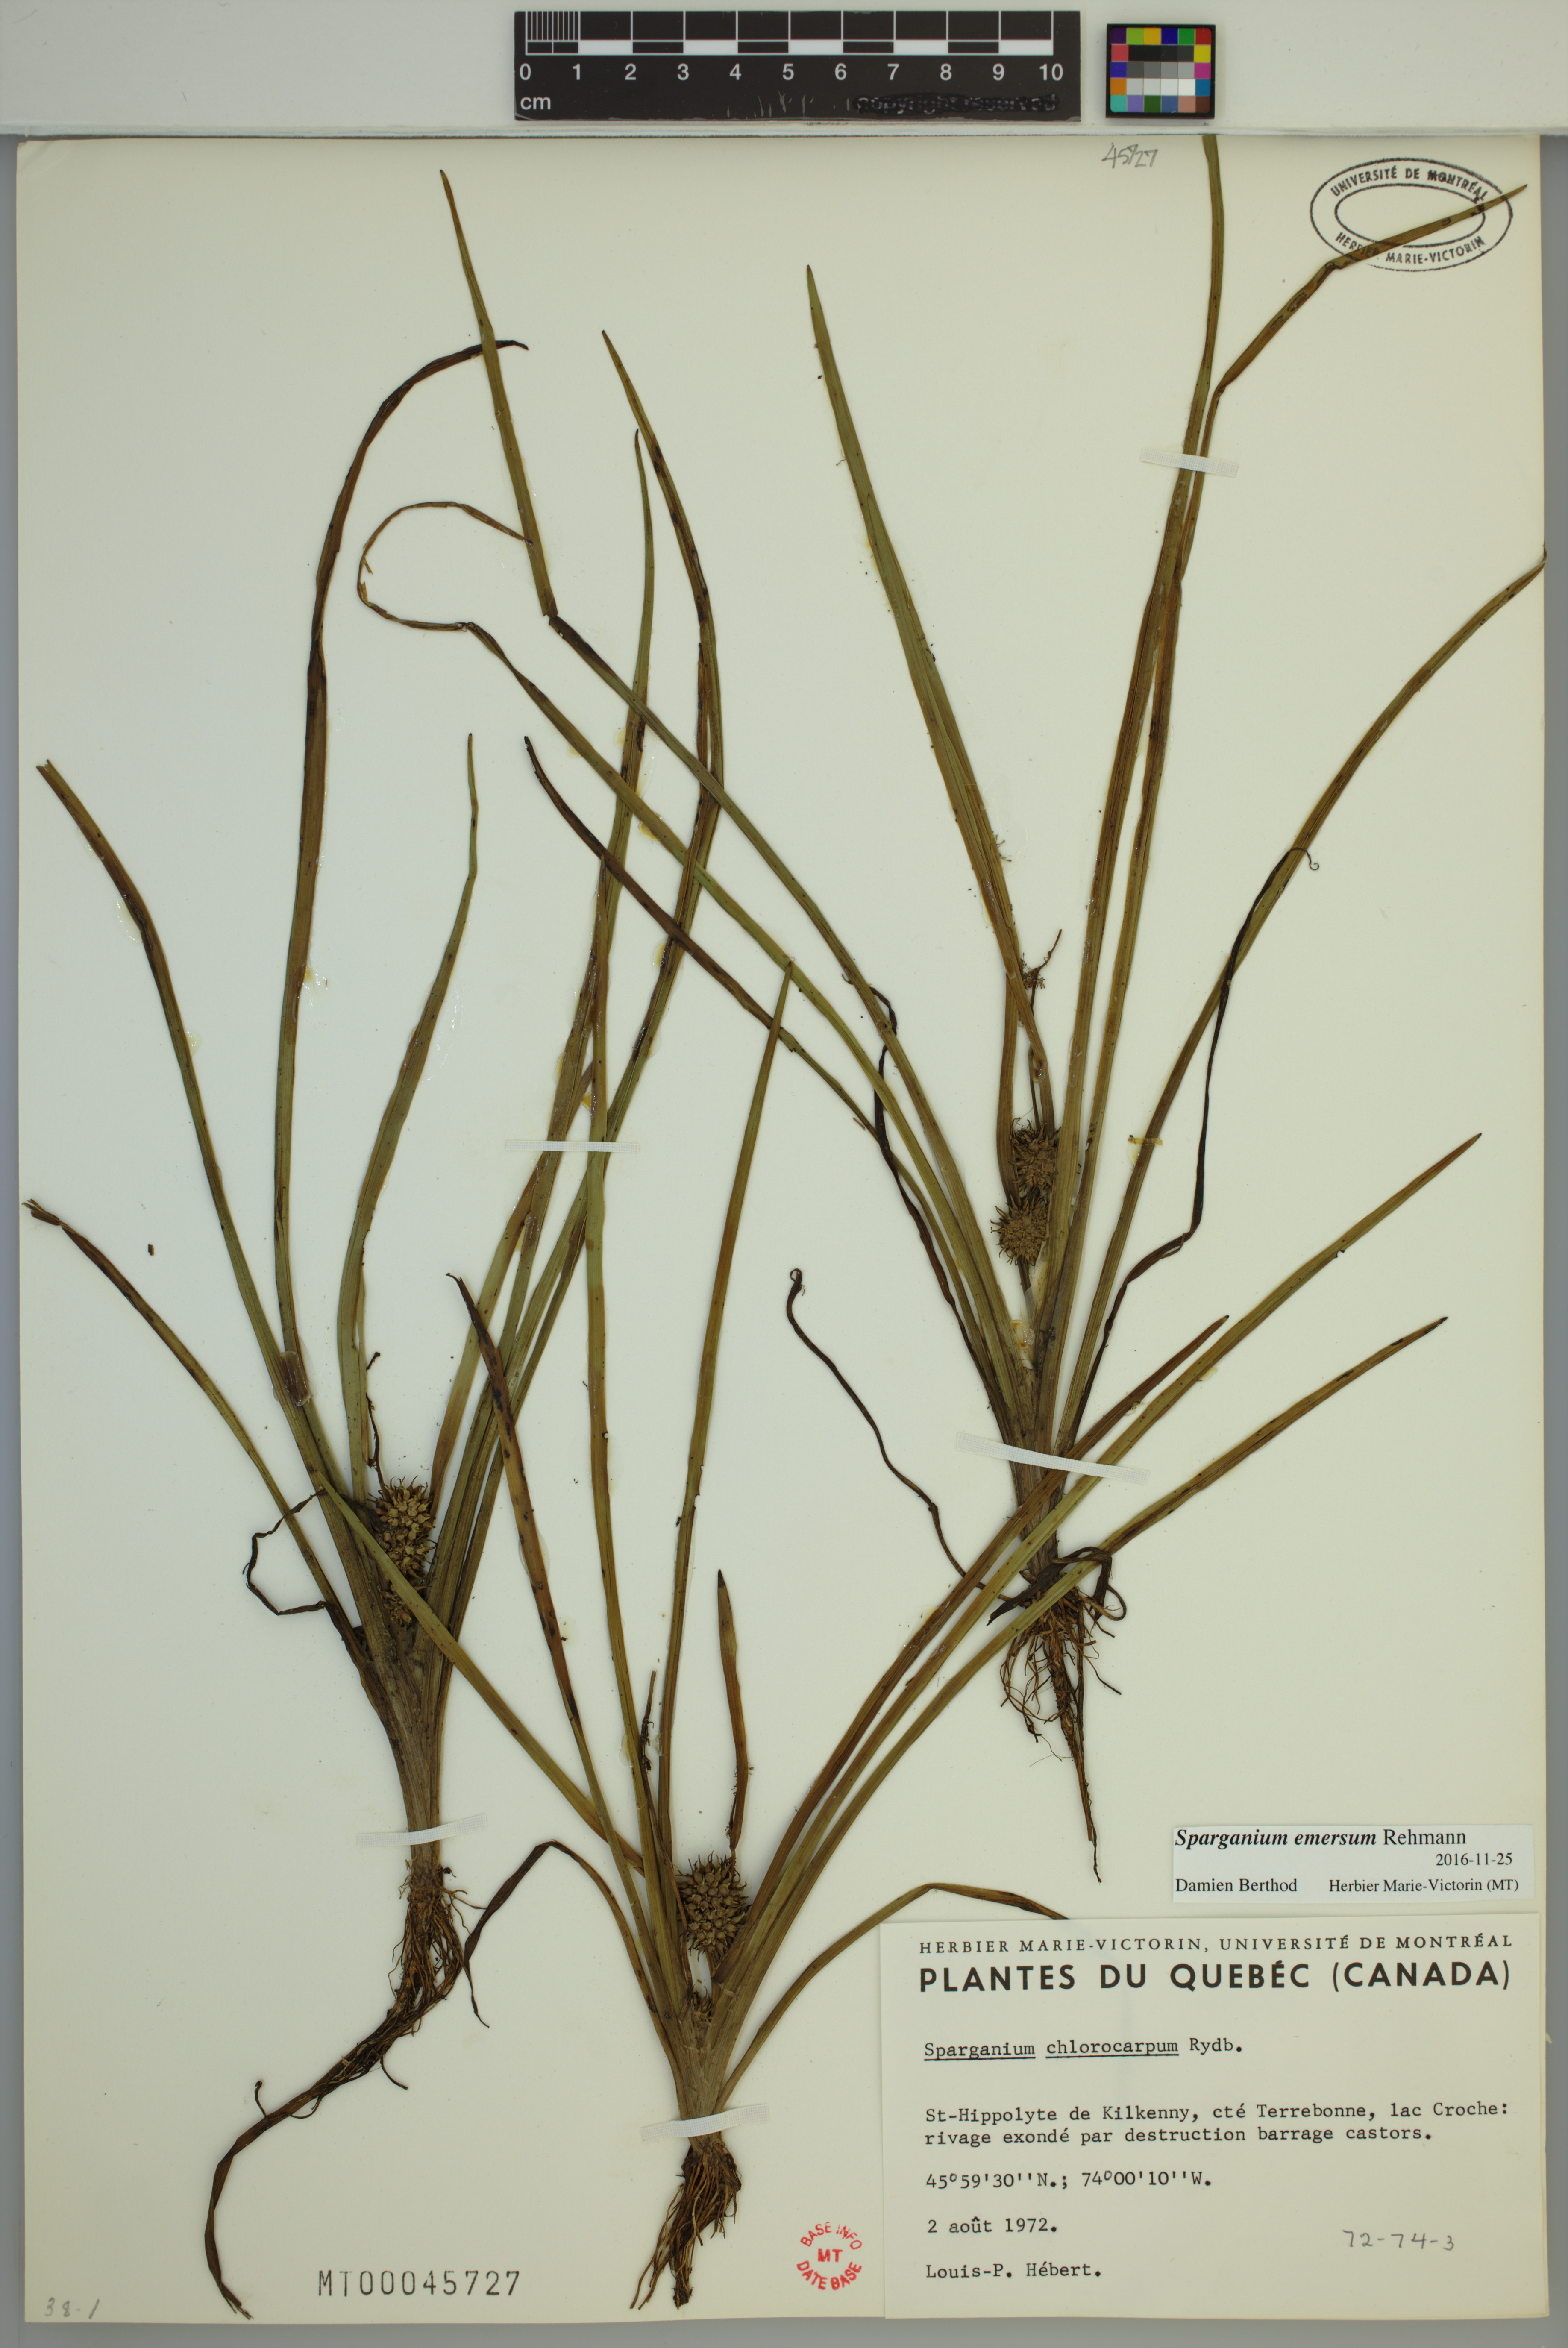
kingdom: Plantae
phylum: Tracheophyta
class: Liliopsida
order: Poales
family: Typhaceae
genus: Sparganium
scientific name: Sparganium emersum
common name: Unbranched bur-reed
